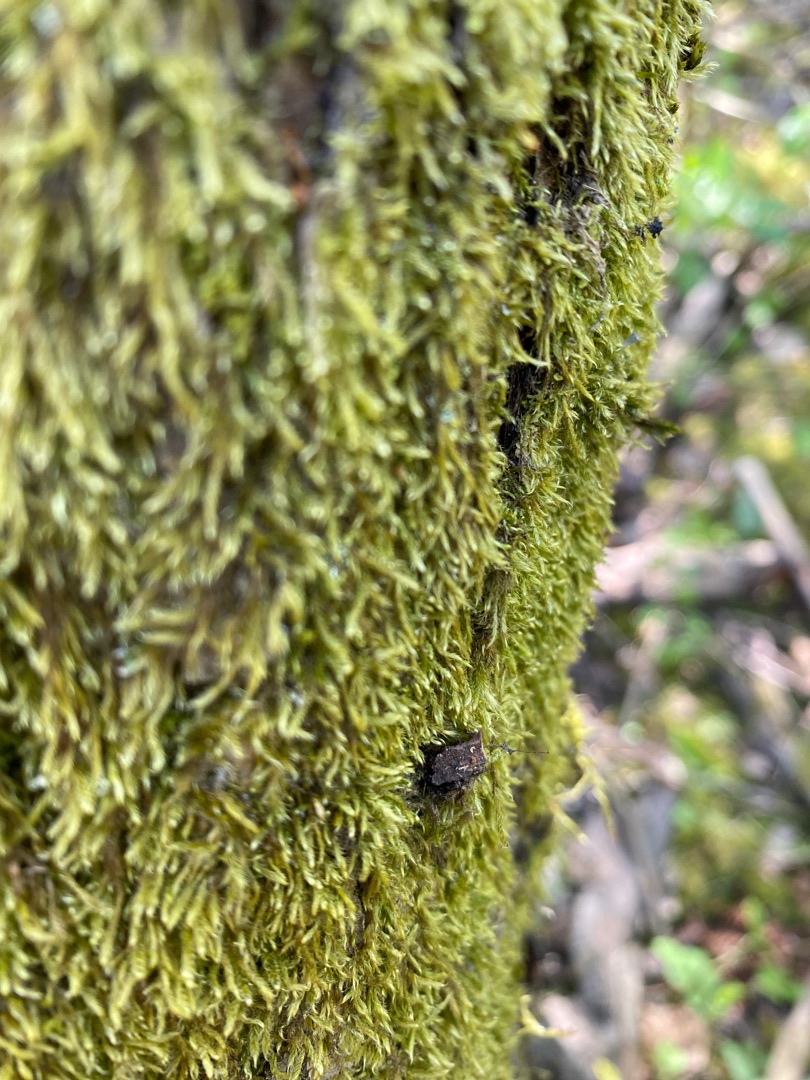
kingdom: Plantae
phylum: Bryophyta
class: Bryopsida
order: Hypnales
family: Hypnaceae
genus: Hypnum
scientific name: Hypnum
